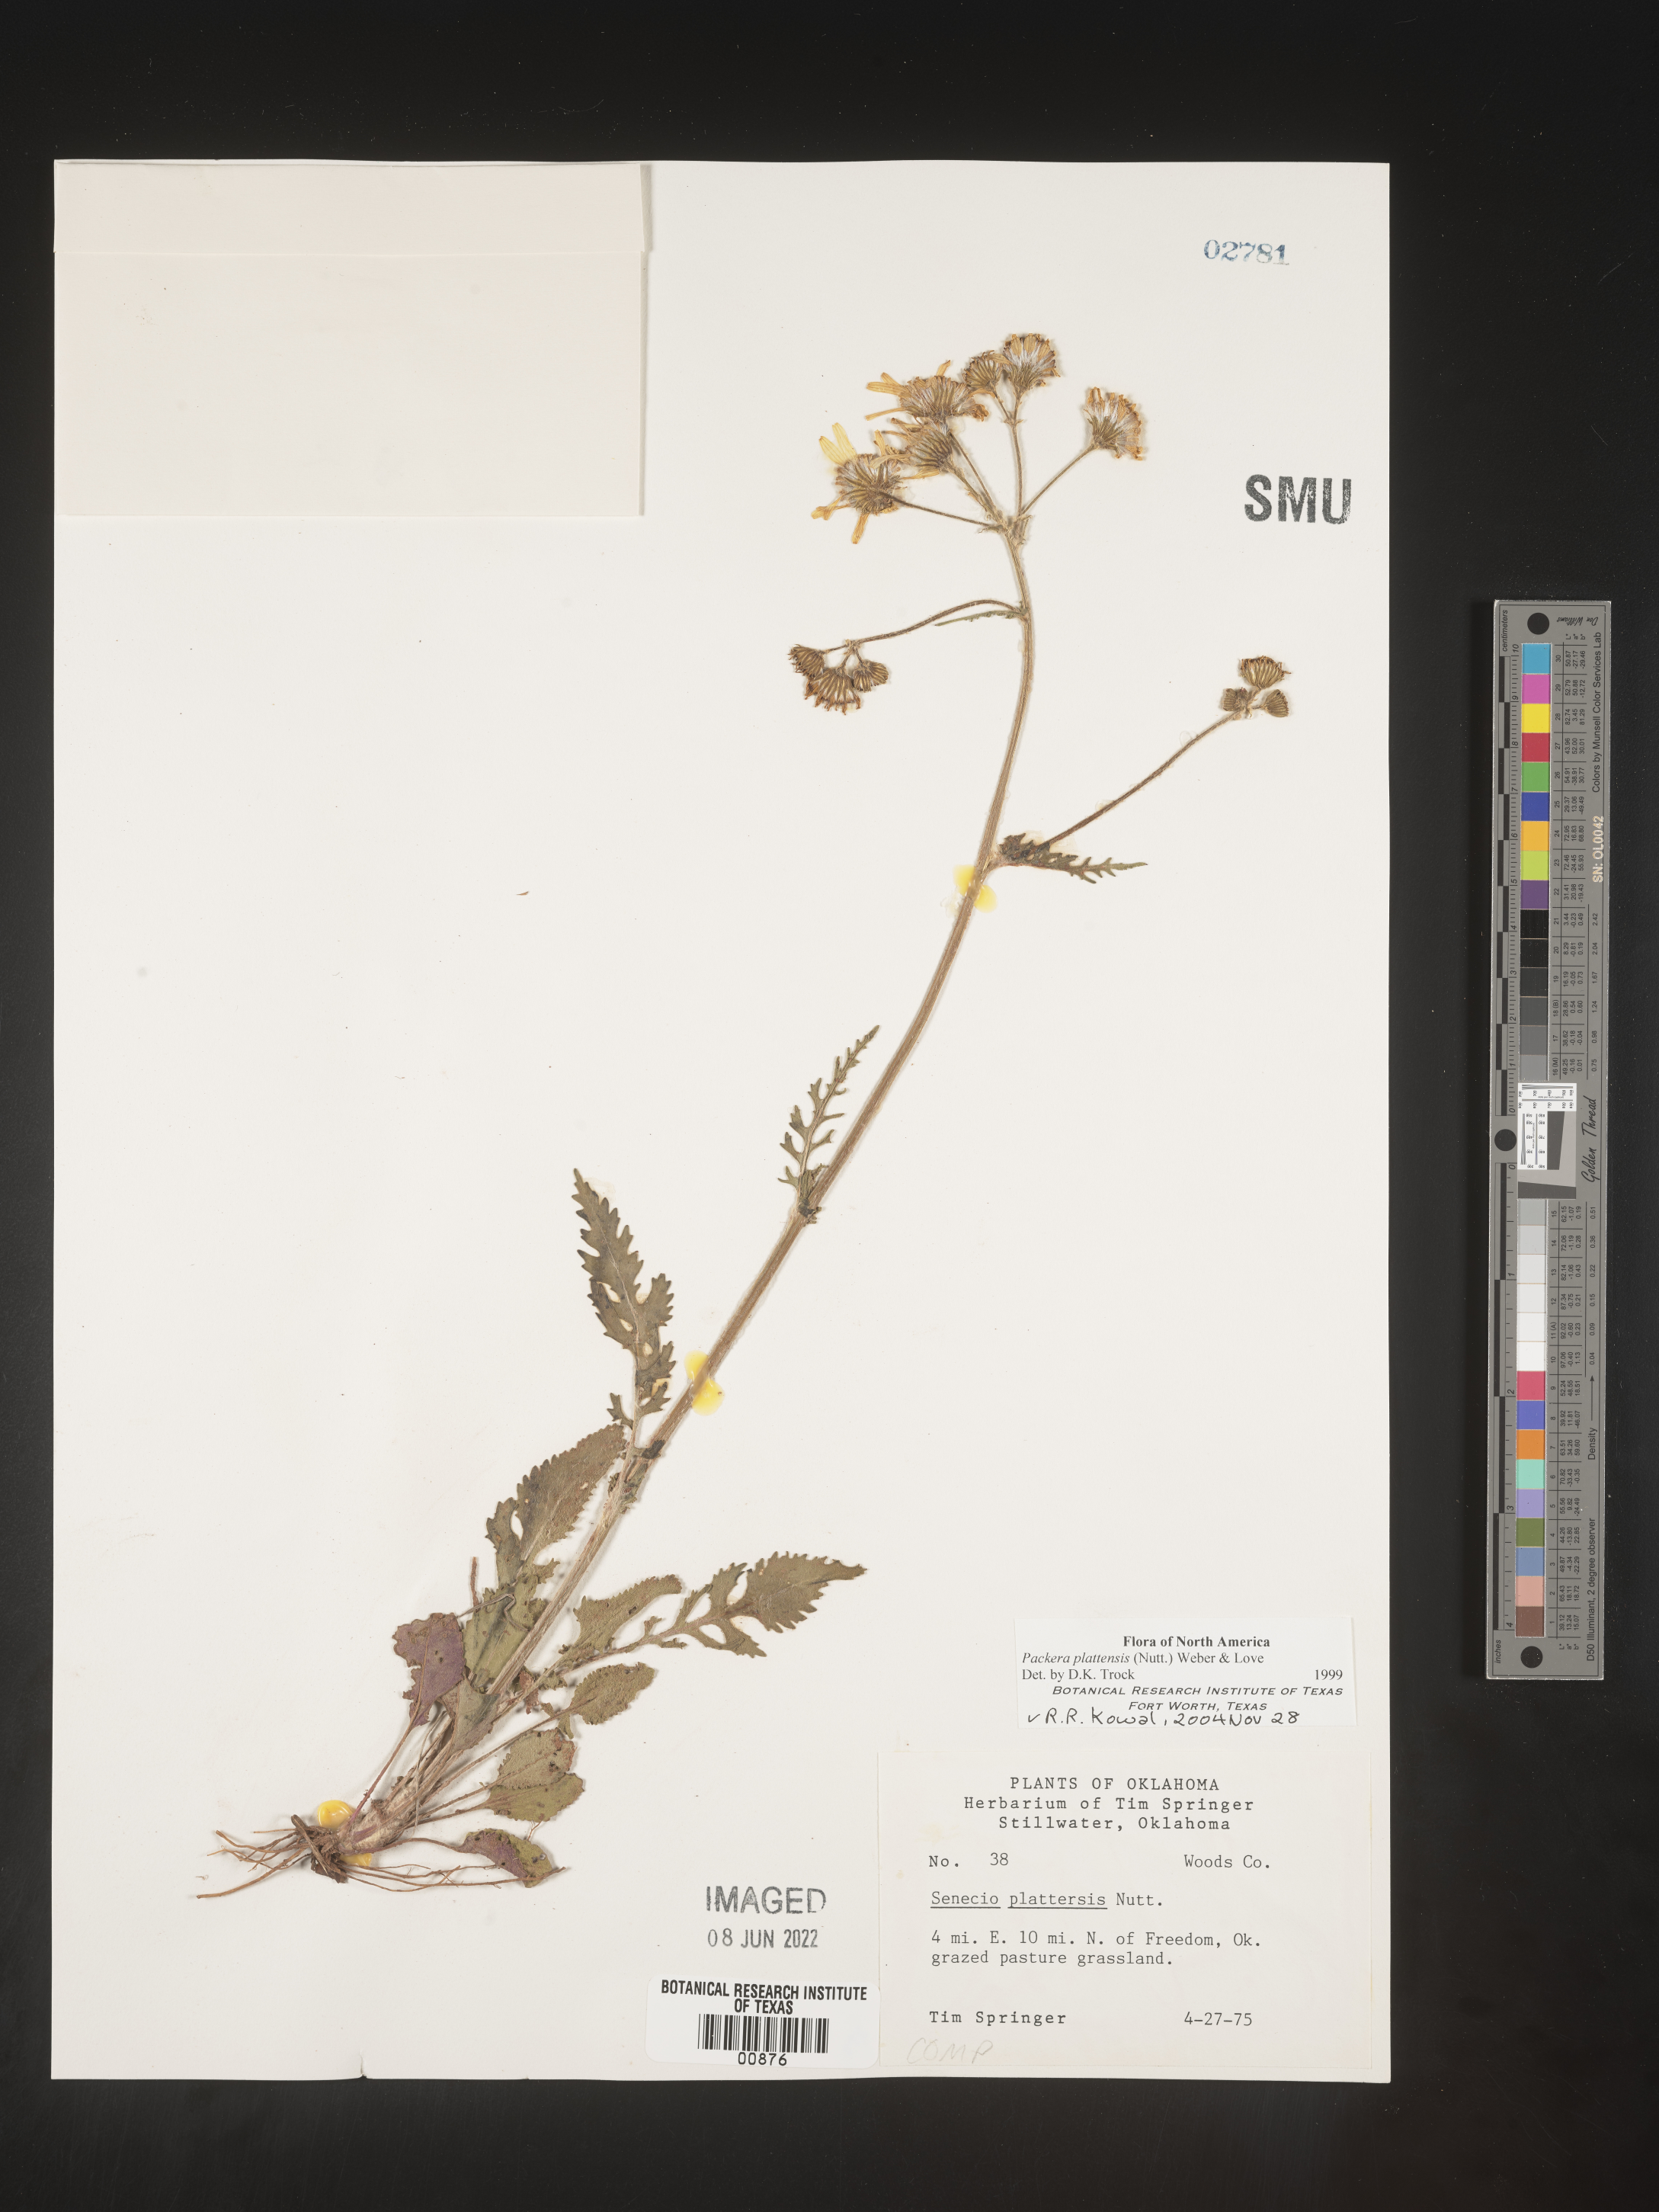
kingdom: Plantae
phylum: Tracheophyta
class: Magnoliopsida
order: Asterales
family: Asteraceae
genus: Packera
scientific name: Packera plattensis
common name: Prairie groundsel
